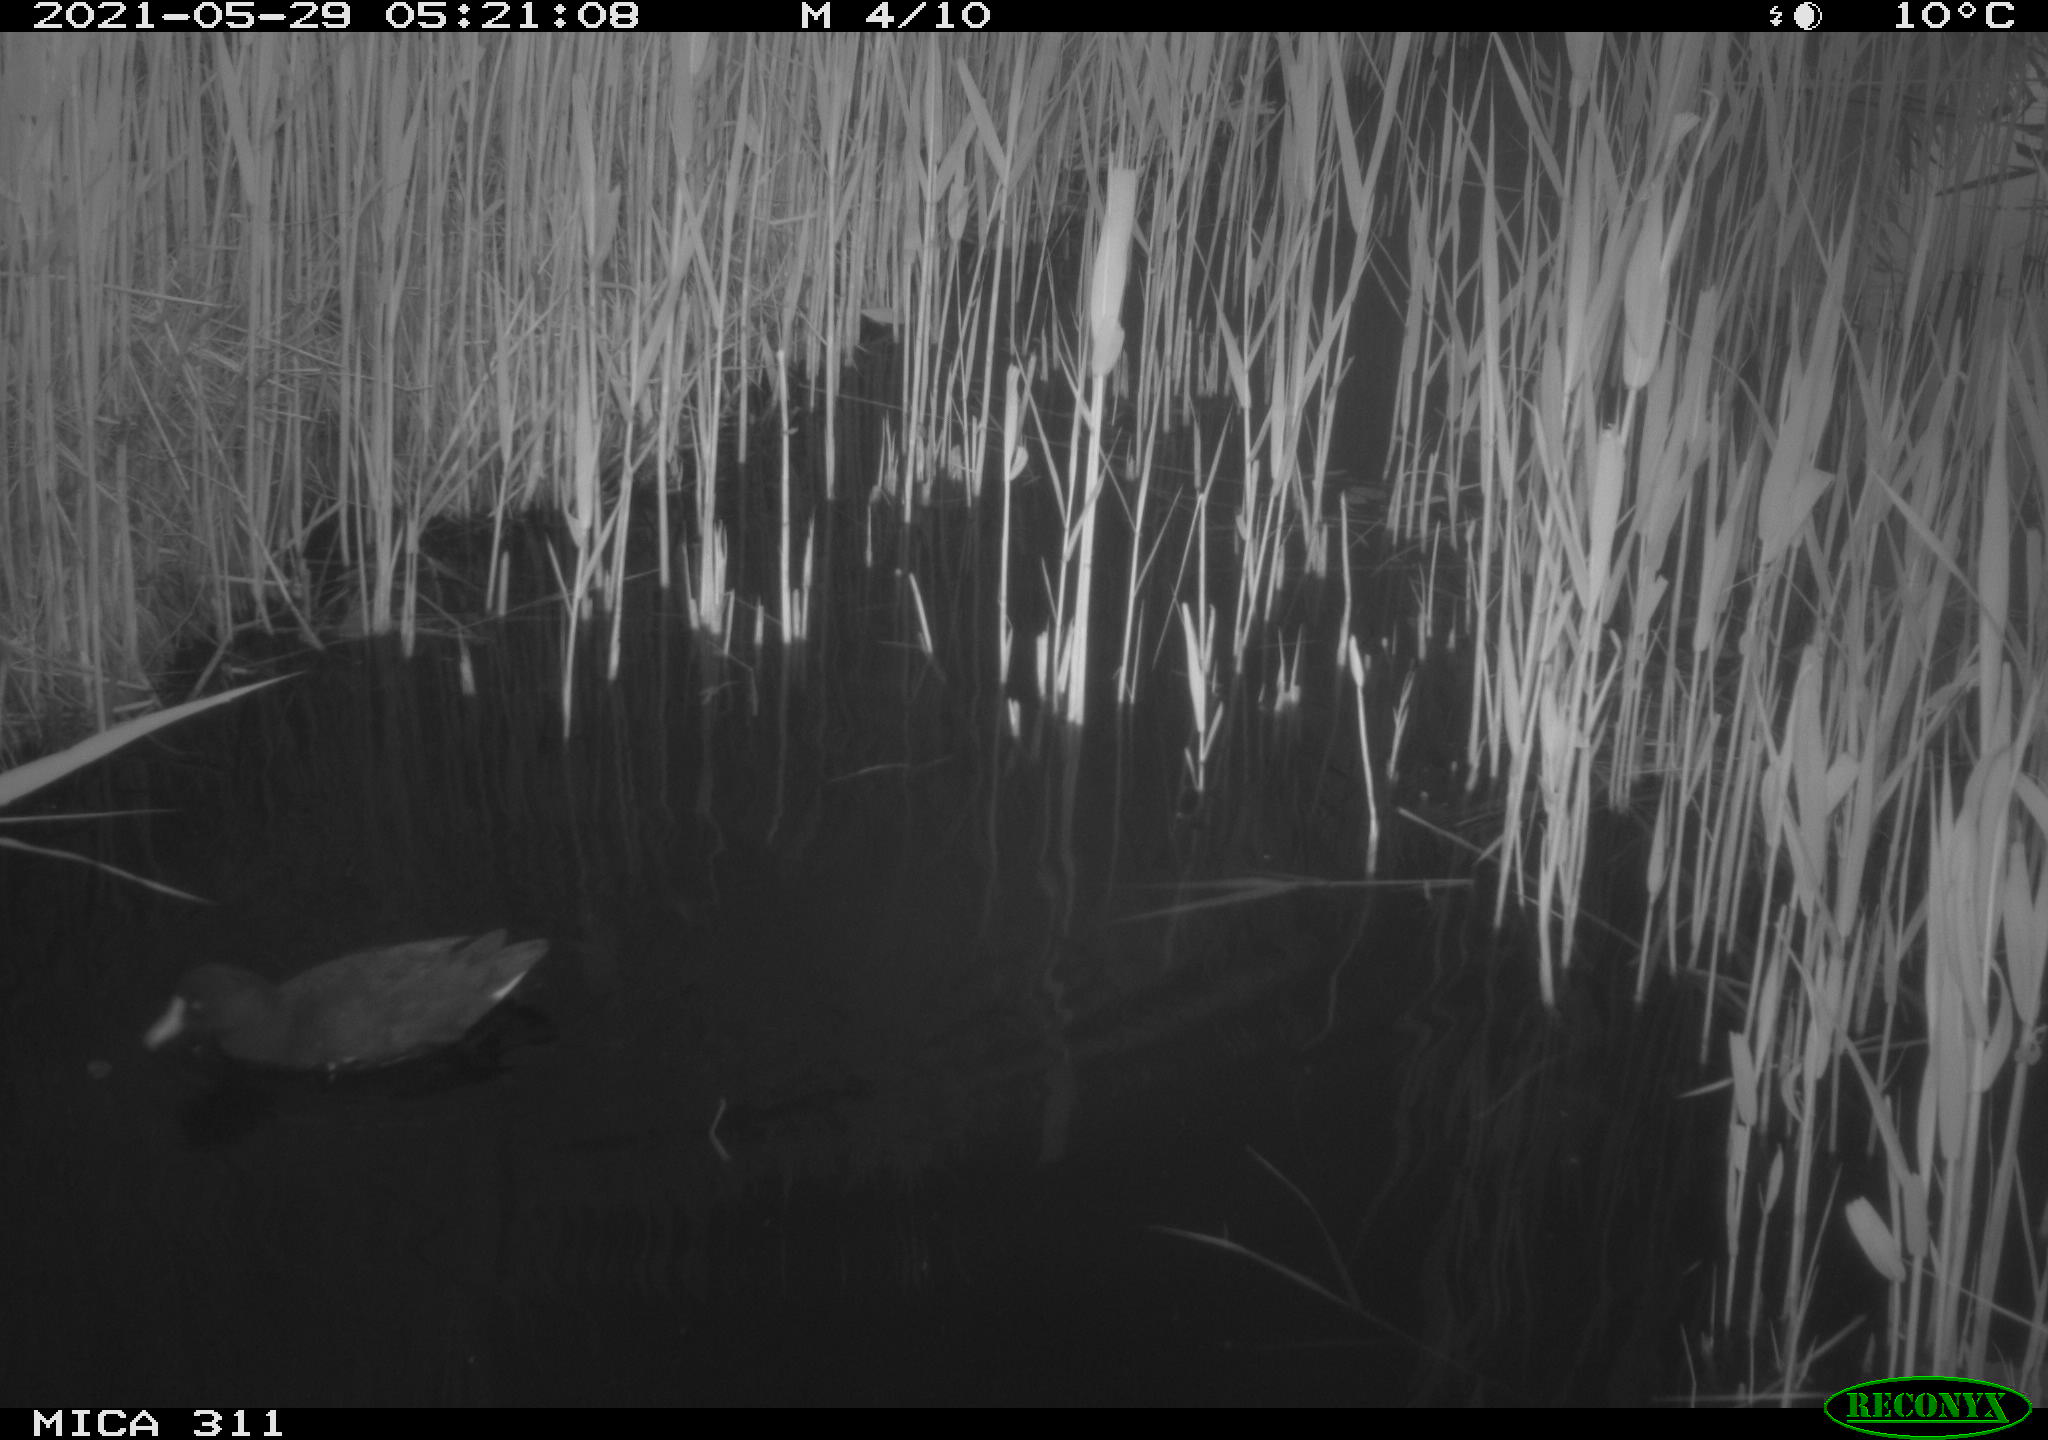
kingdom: Animalia
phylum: Chordata
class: Aves
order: Gruiformes
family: Rallidae
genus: Gallinula
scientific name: Gallinula chloropus
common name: Common moorhen
